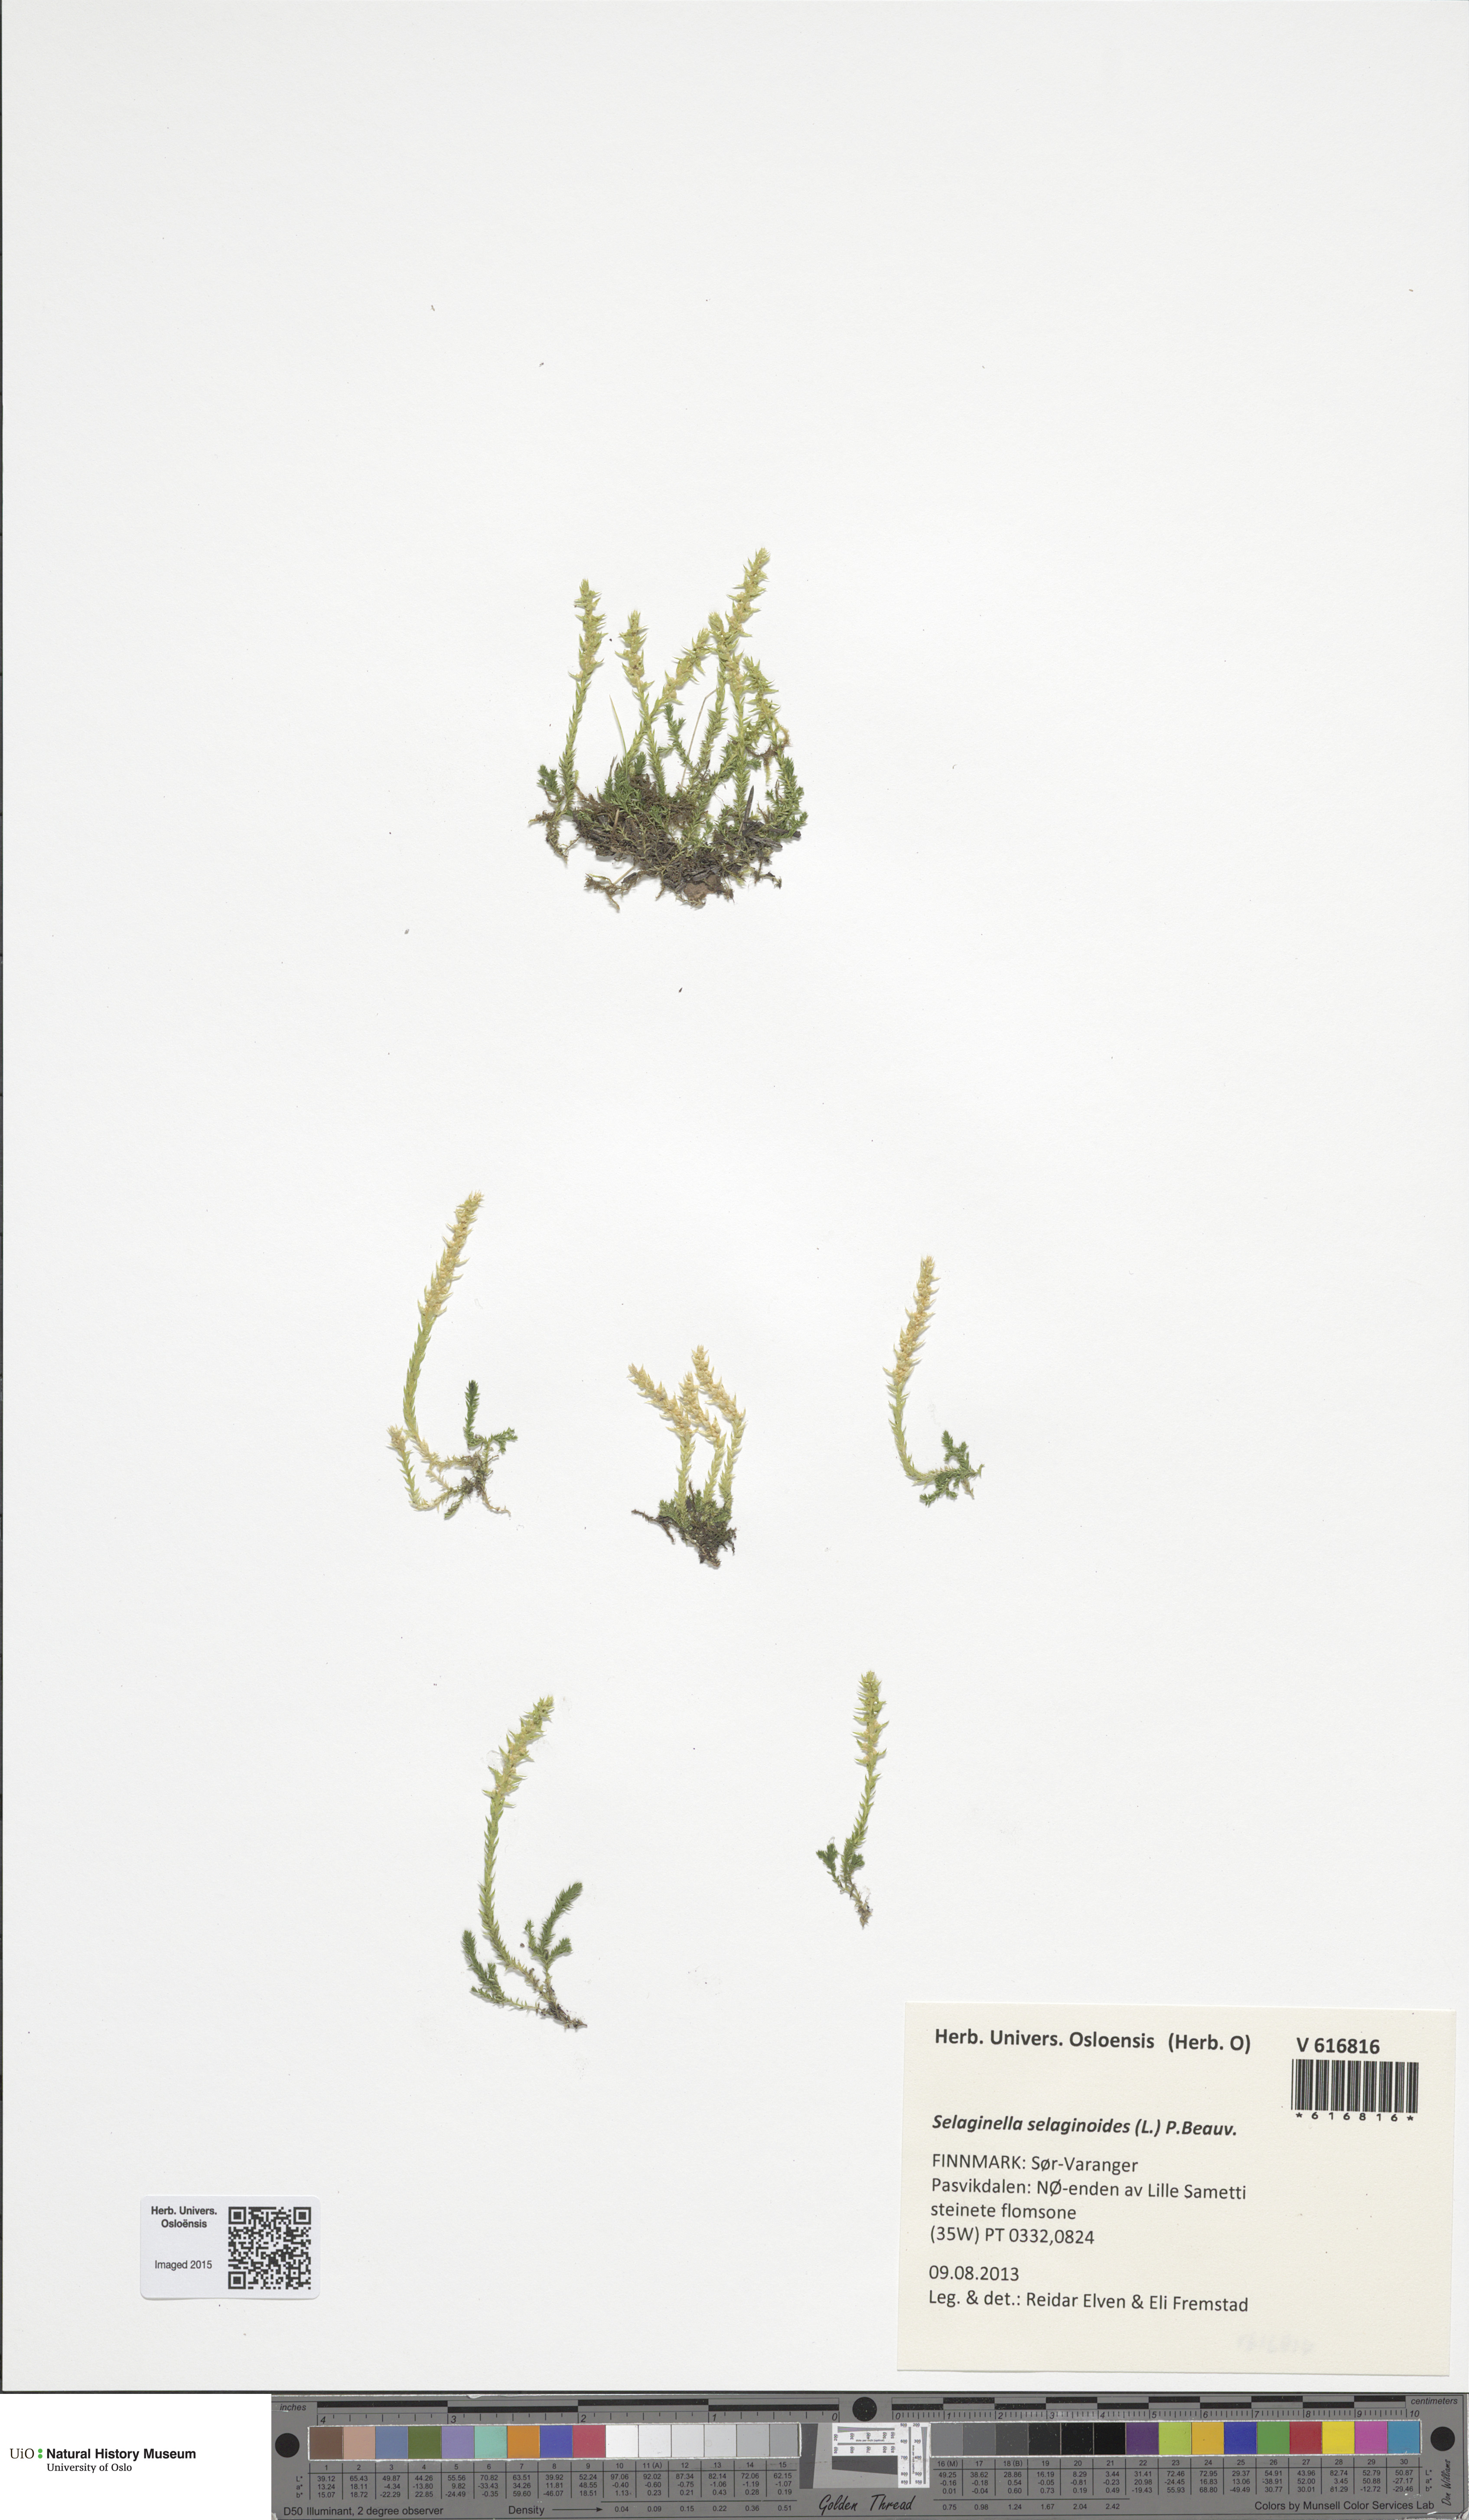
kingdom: Plantae
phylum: Tracheophyta
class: Lycopodiopsida
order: Selaginellales
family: Selaginellaceae
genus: Selaginella
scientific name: Selaginella selaginoides
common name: Prickly mountain-moss
